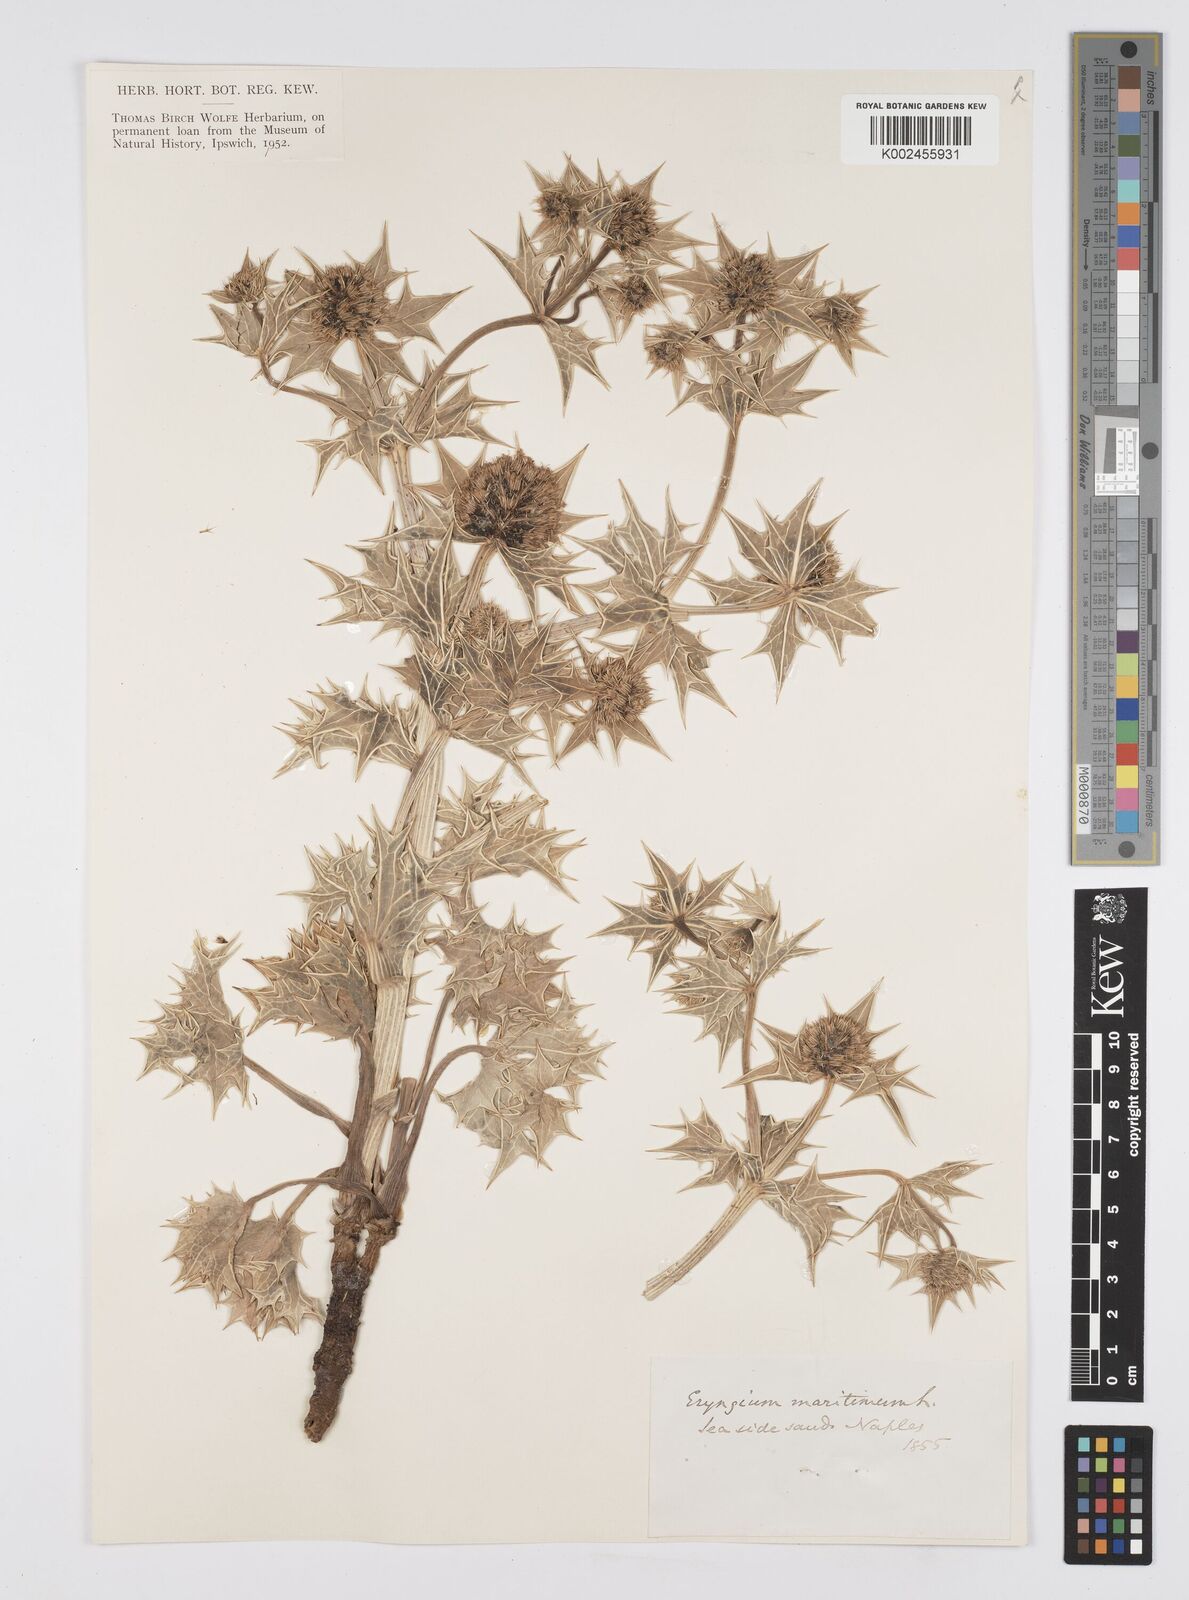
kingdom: Plantae
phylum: Tracheophyta
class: Magnoliopsida
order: Apiales
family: Apiaceae
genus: Eryngium
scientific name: Eryngium maritimum
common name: Sea-holly
